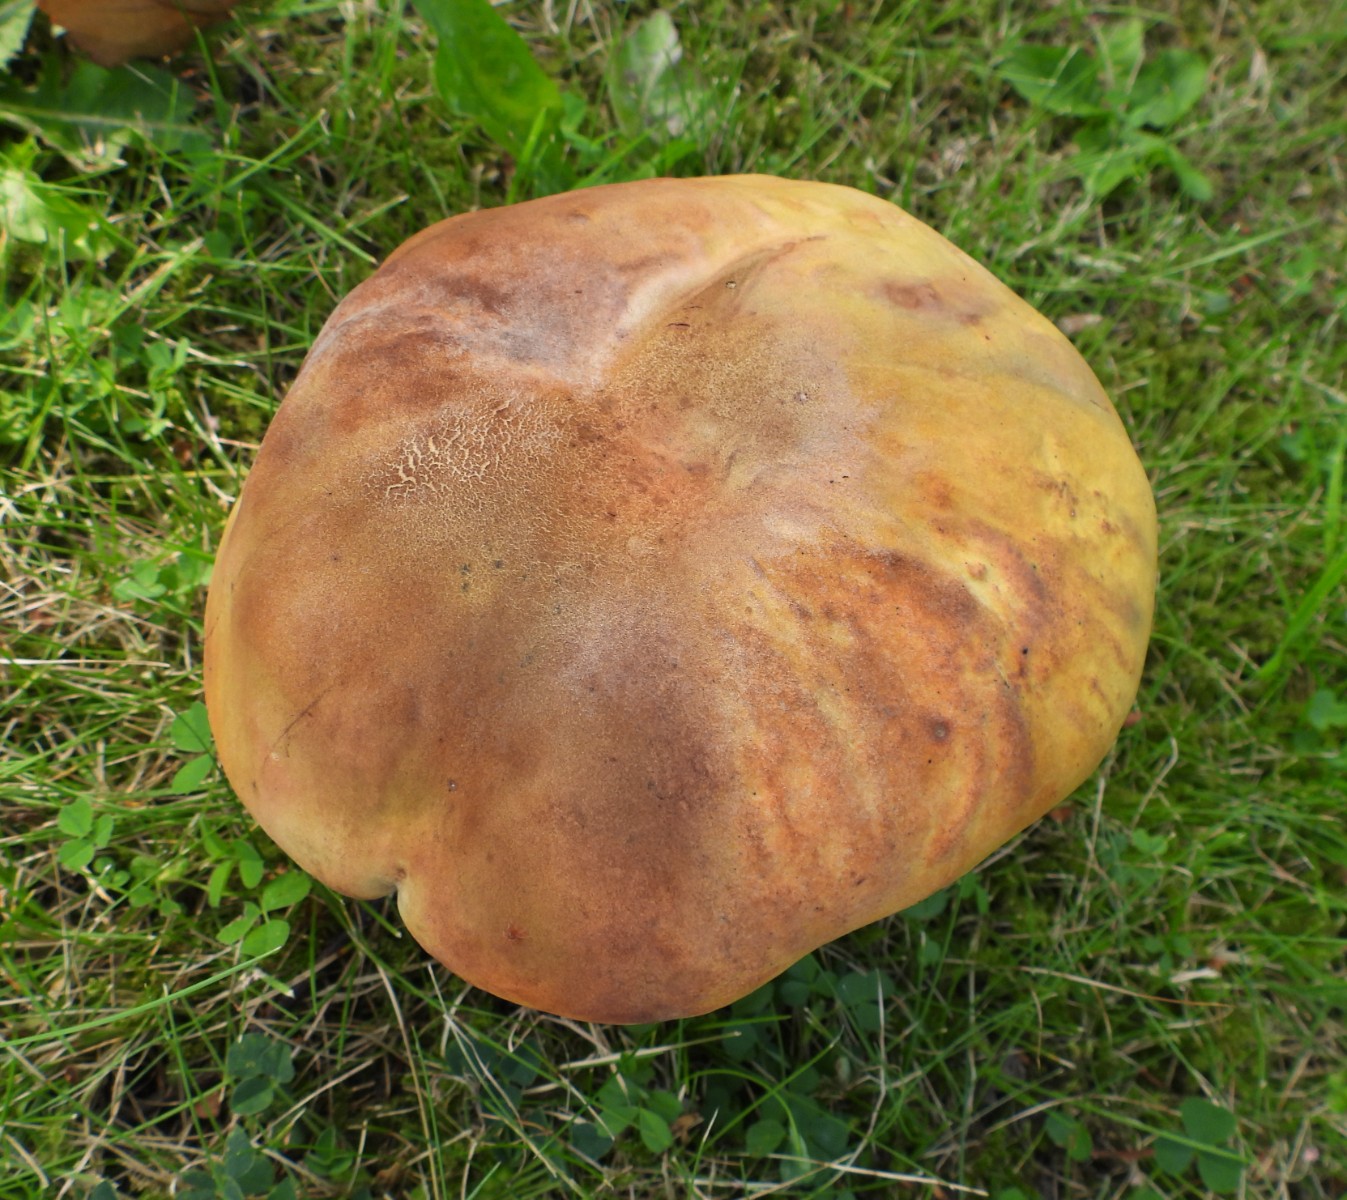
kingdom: Fungi
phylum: Basidiomycota
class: Agaricomycetes
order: Boletales
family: Boletaceae
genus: Suillellus
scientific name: Suillellus luridus
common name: netstokket indigorørhat
